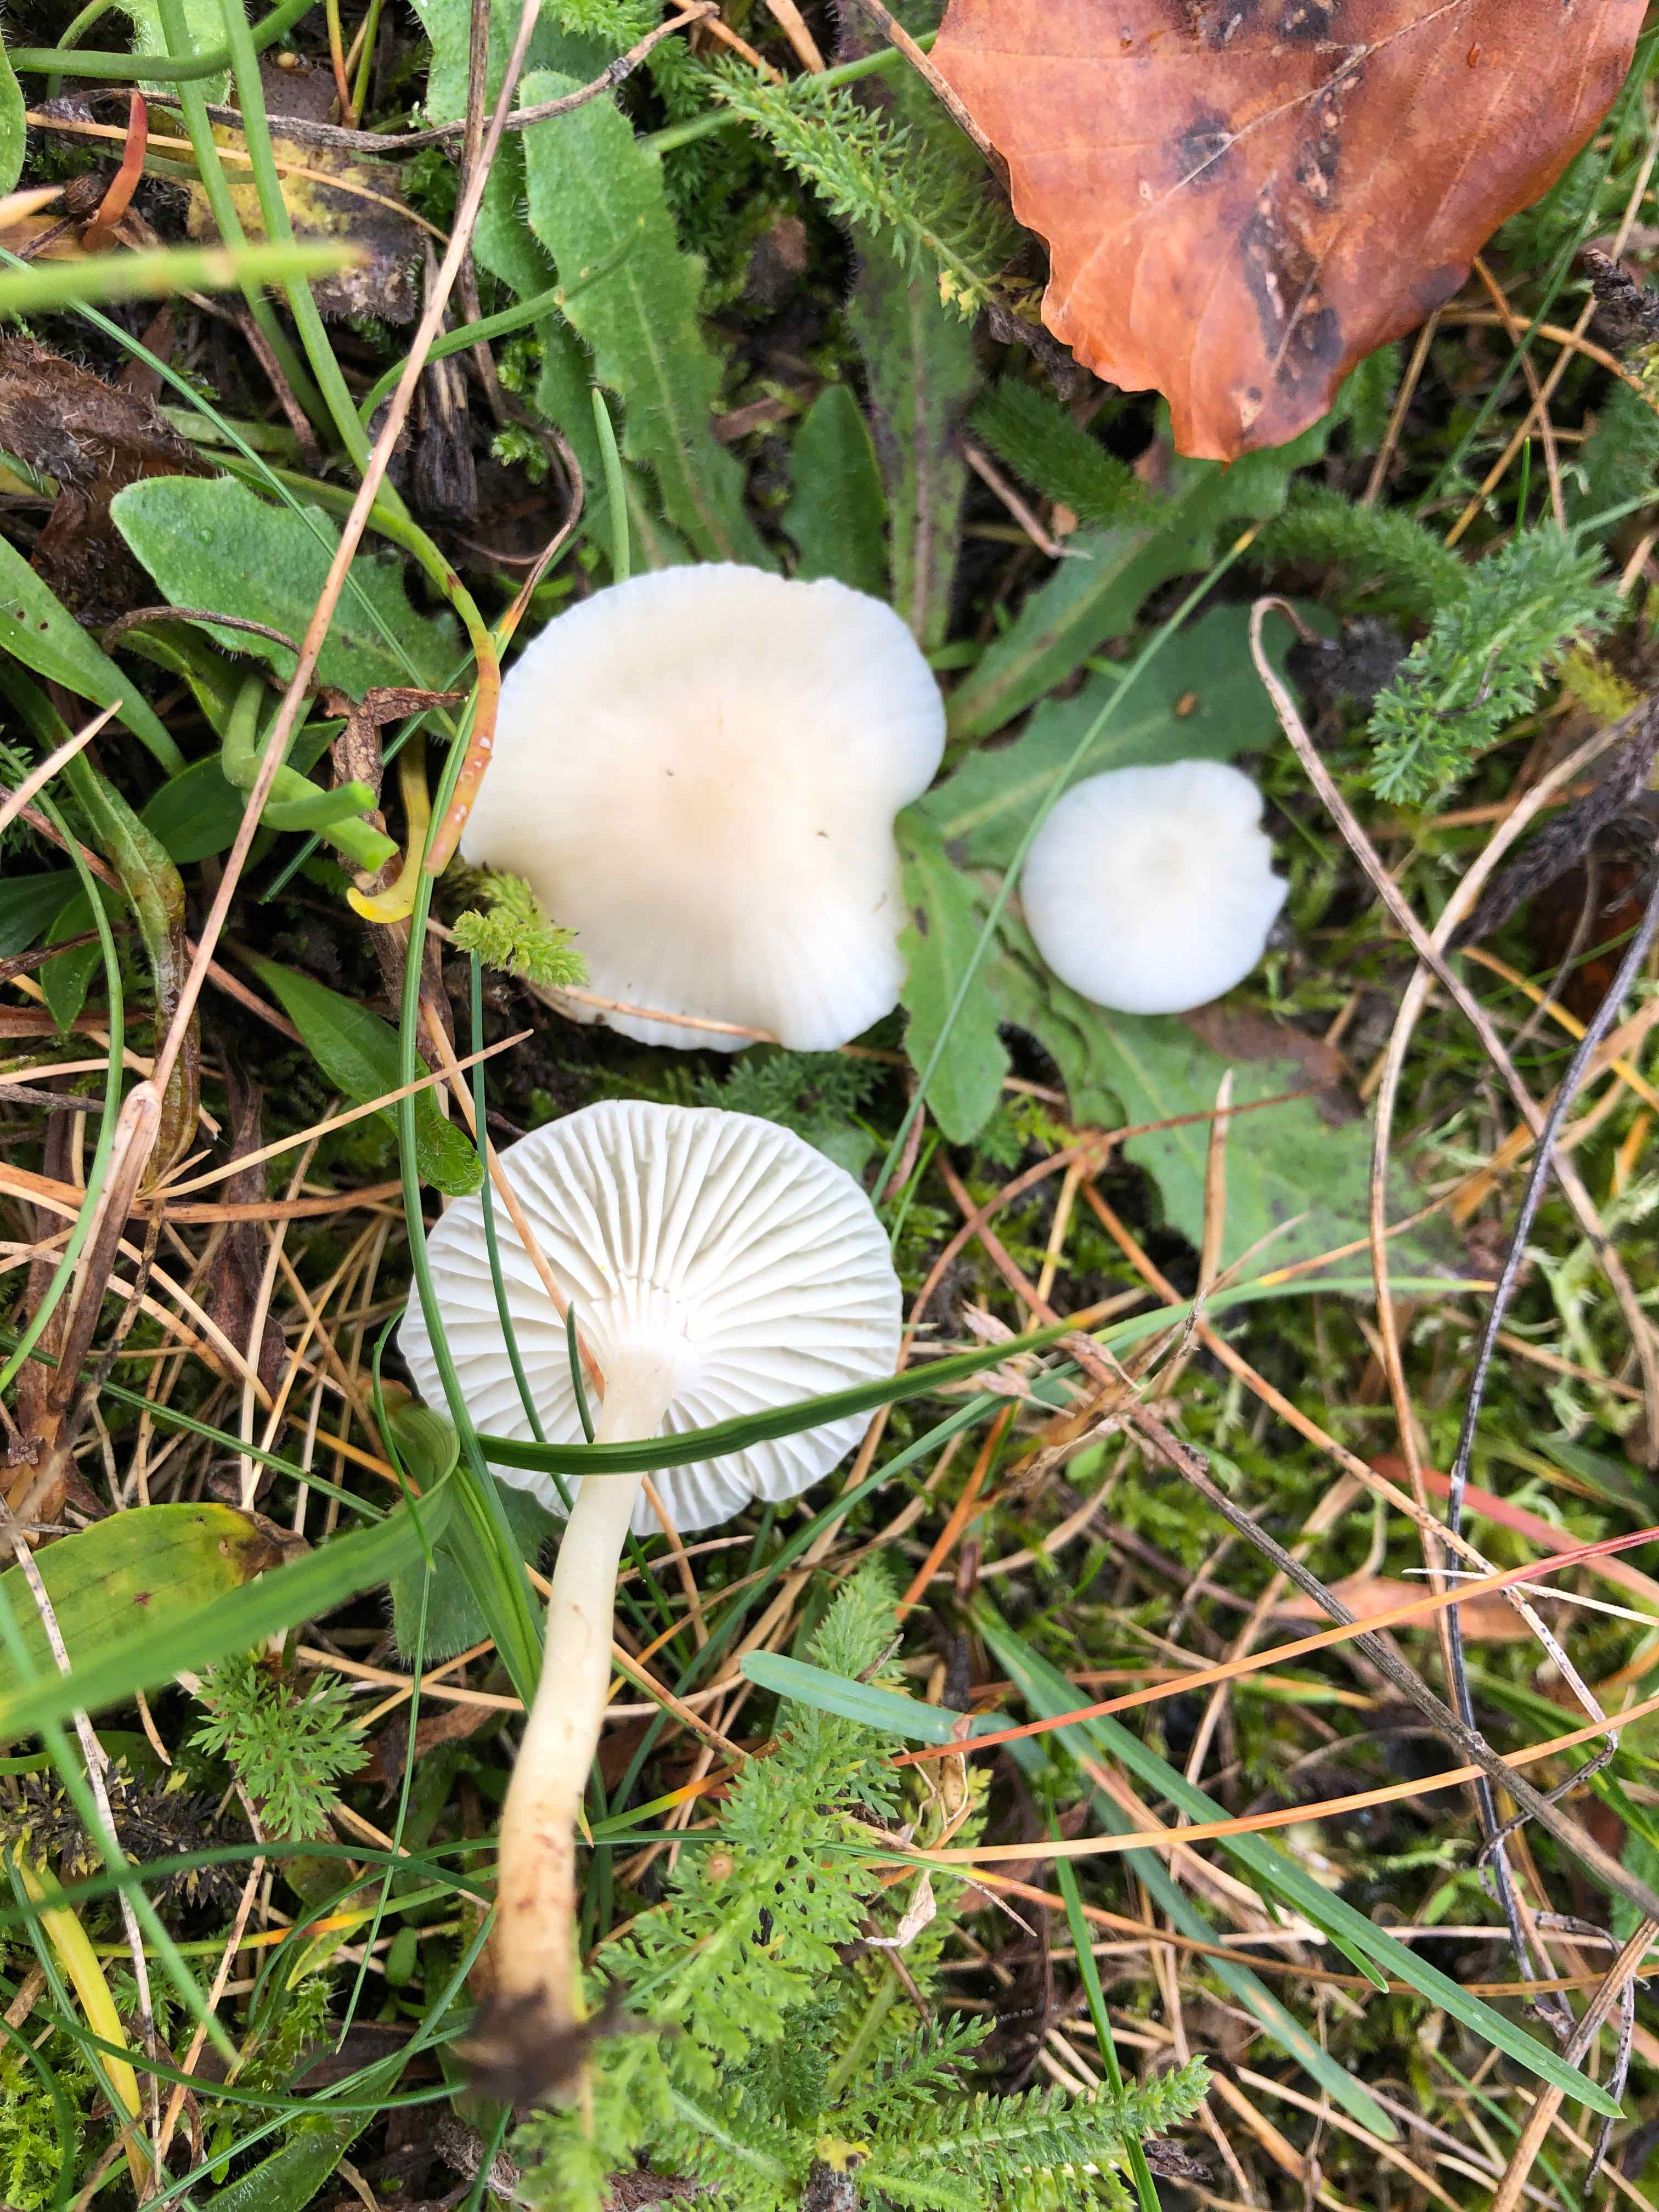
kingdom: Fungi
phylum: Basidiomycota
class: Agaricomycetes
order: Agaricales
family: Hygrophoraceae
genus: Cuphophyllus
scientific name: Cuphophyllus virgineus
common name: snehvid vokshat
